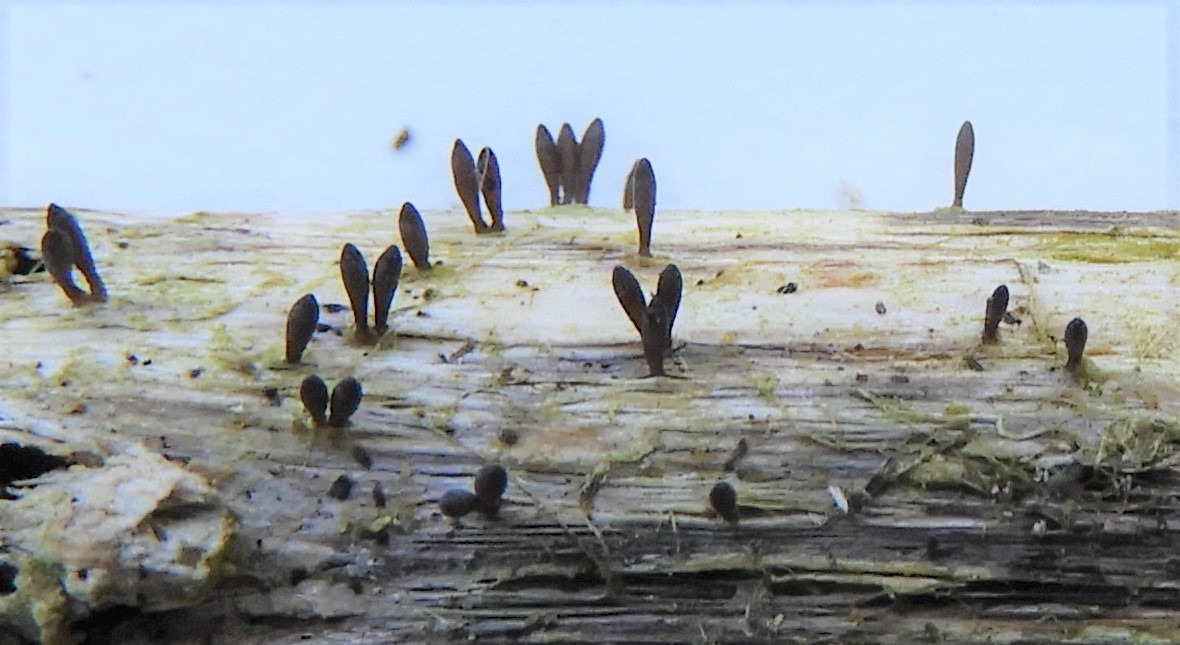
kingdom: Fungi
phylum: Ascomycota
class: Dothideomycetes
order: Acrospermales
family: Acrospermaceae
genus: Acrospermum
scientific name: Acrospermum compressum
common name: nælde-stængeltunge
